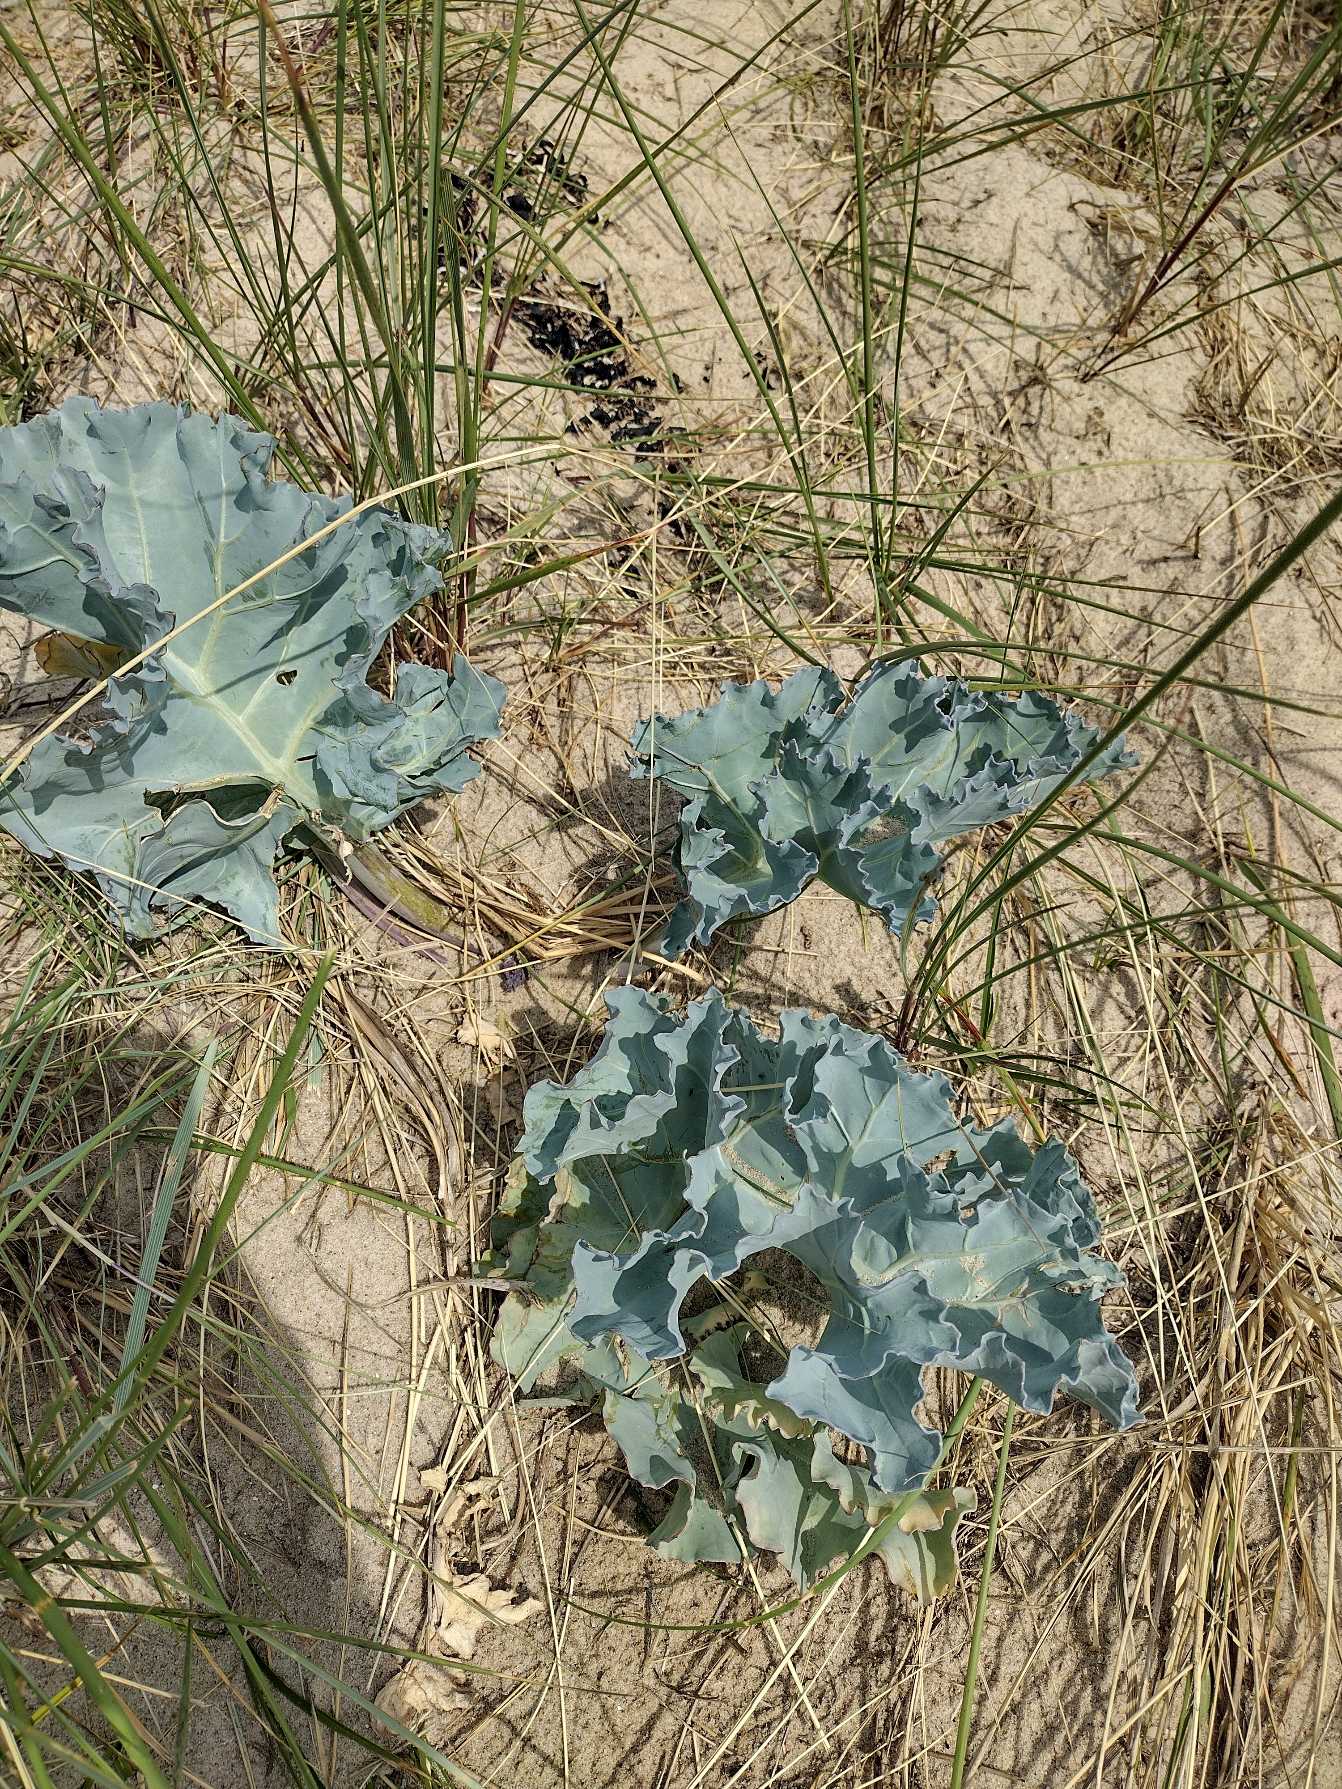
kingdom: Plantae
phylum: Tracheophyta
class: Magnoliopsida
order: Brassicales
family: Brassicaceae
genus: Crambe
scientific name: Crambe maritima
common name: Strandkål
